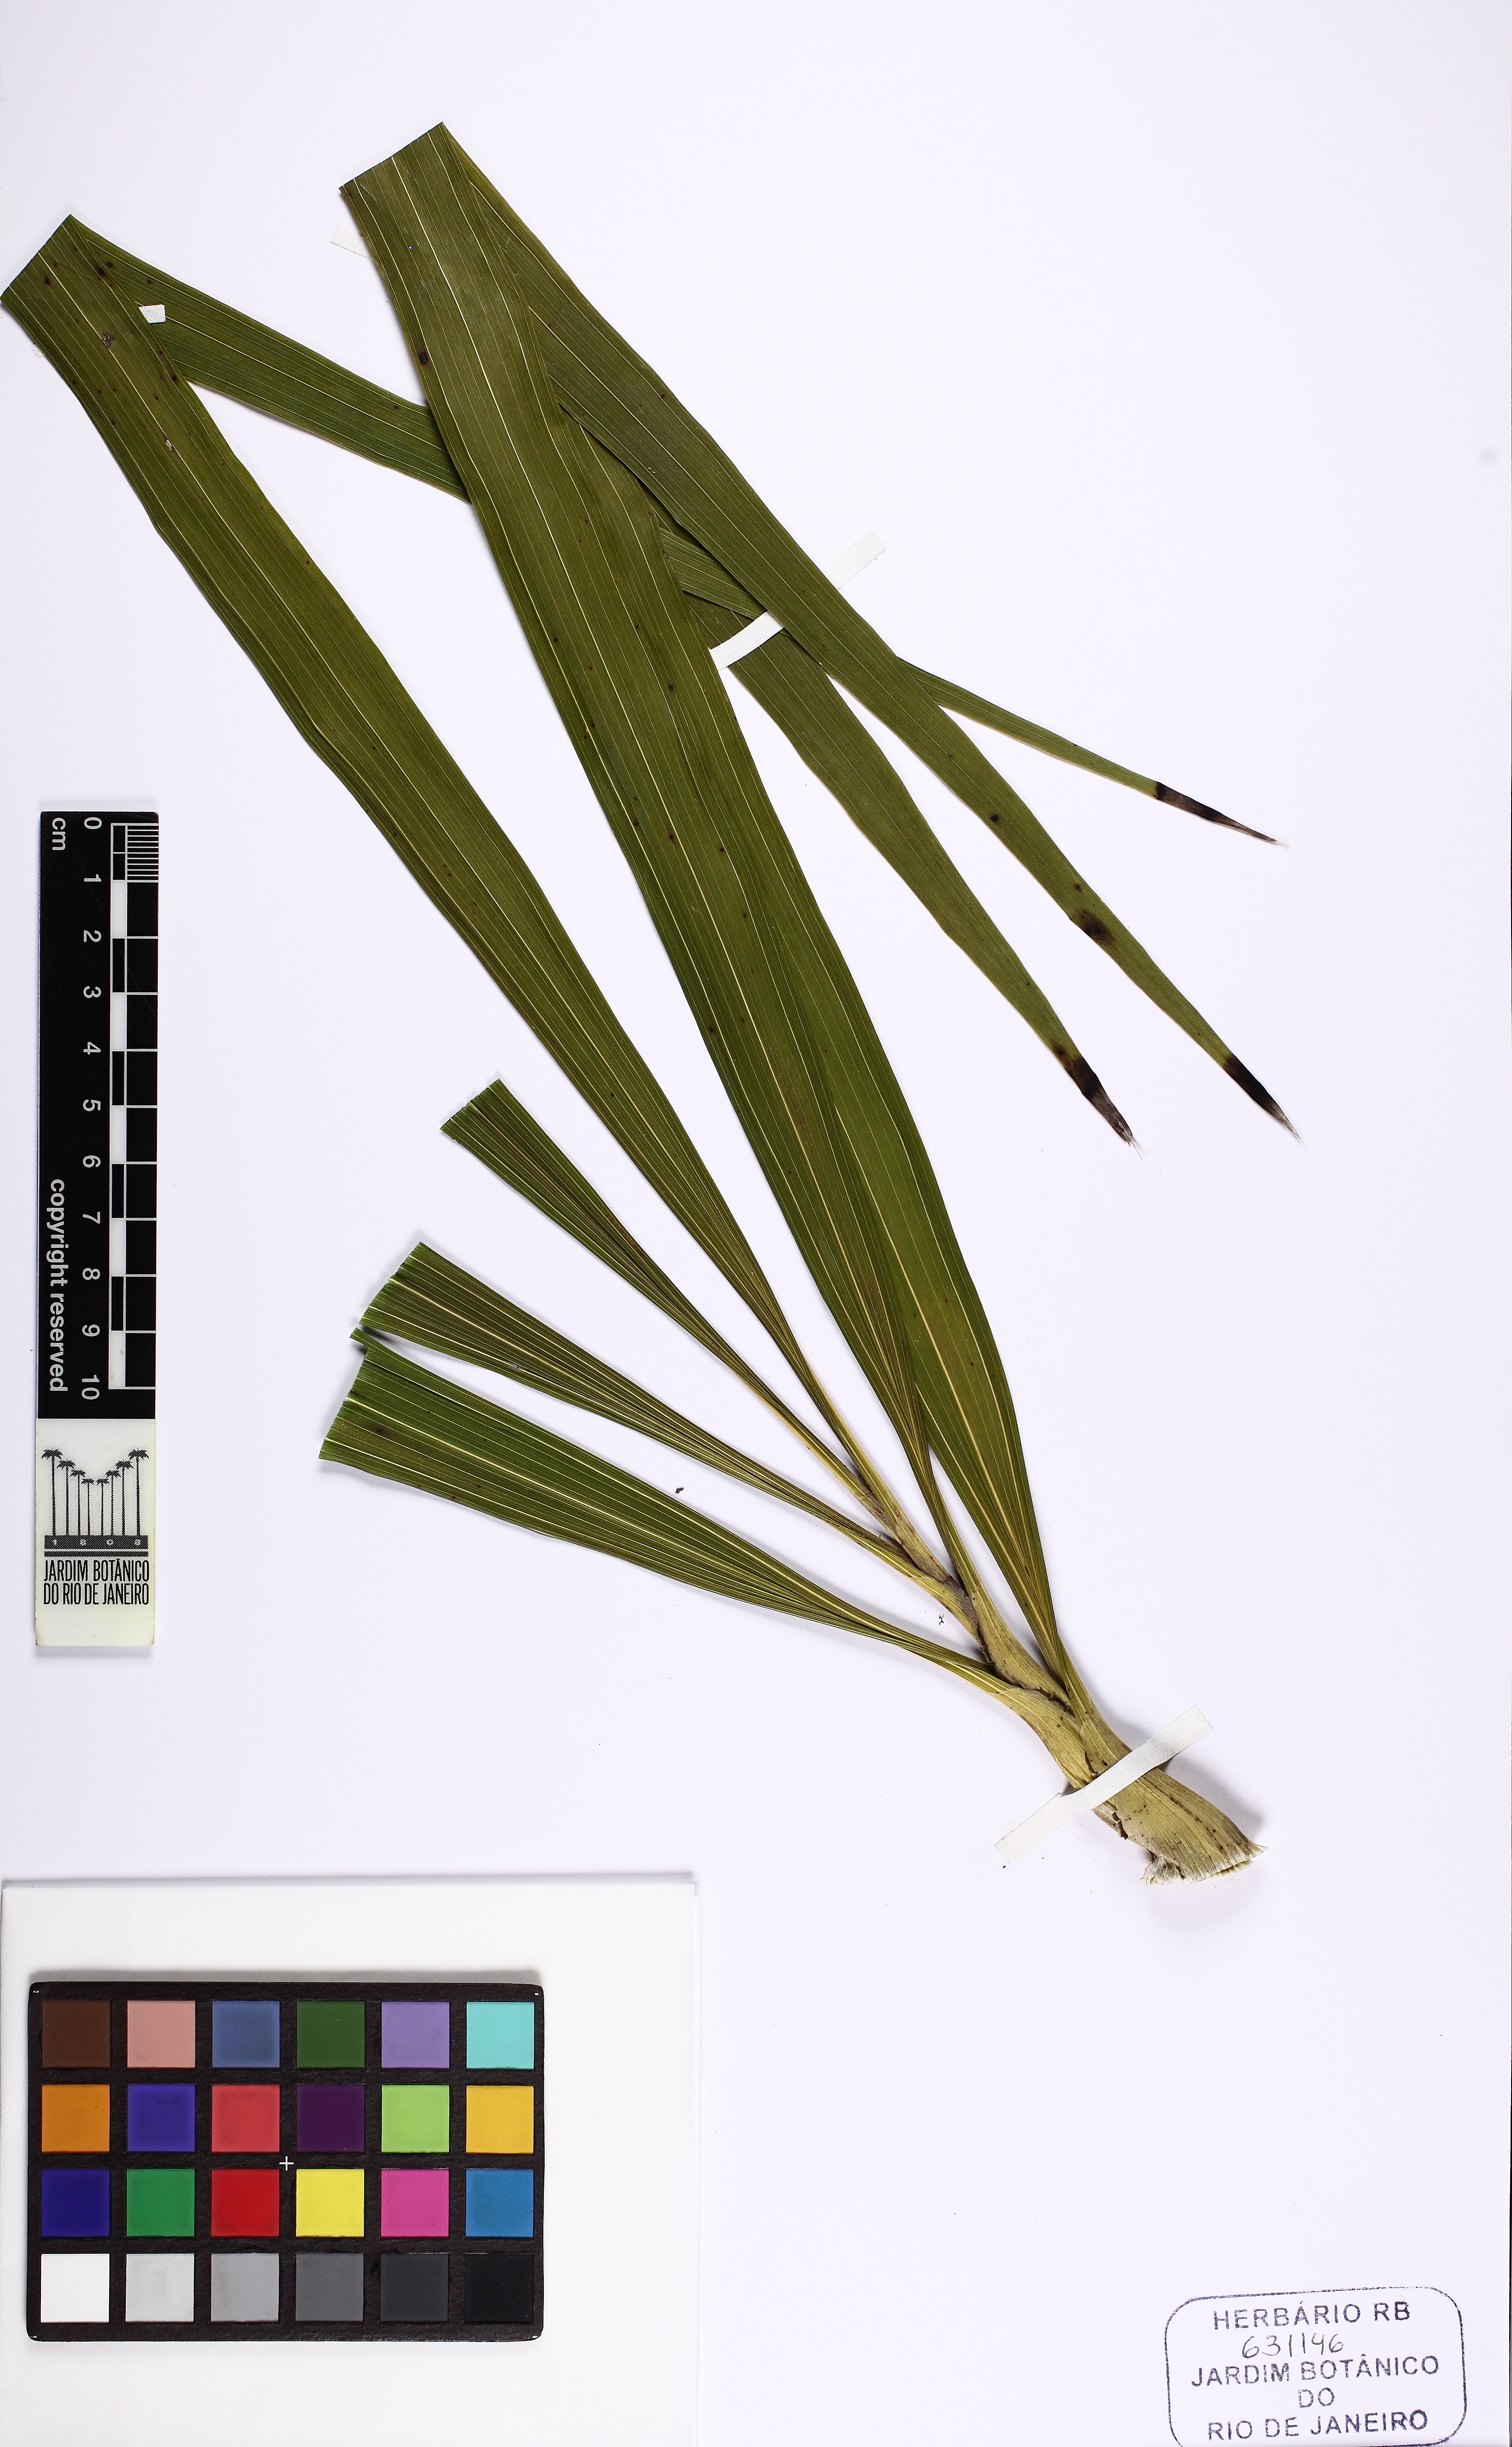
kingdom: Plantae
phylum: Tracheophyta
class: Liliopsida
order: Asparagales
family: Orchidaceae
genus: Cyrtopodium
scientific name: Cyrtopodium intermedium
